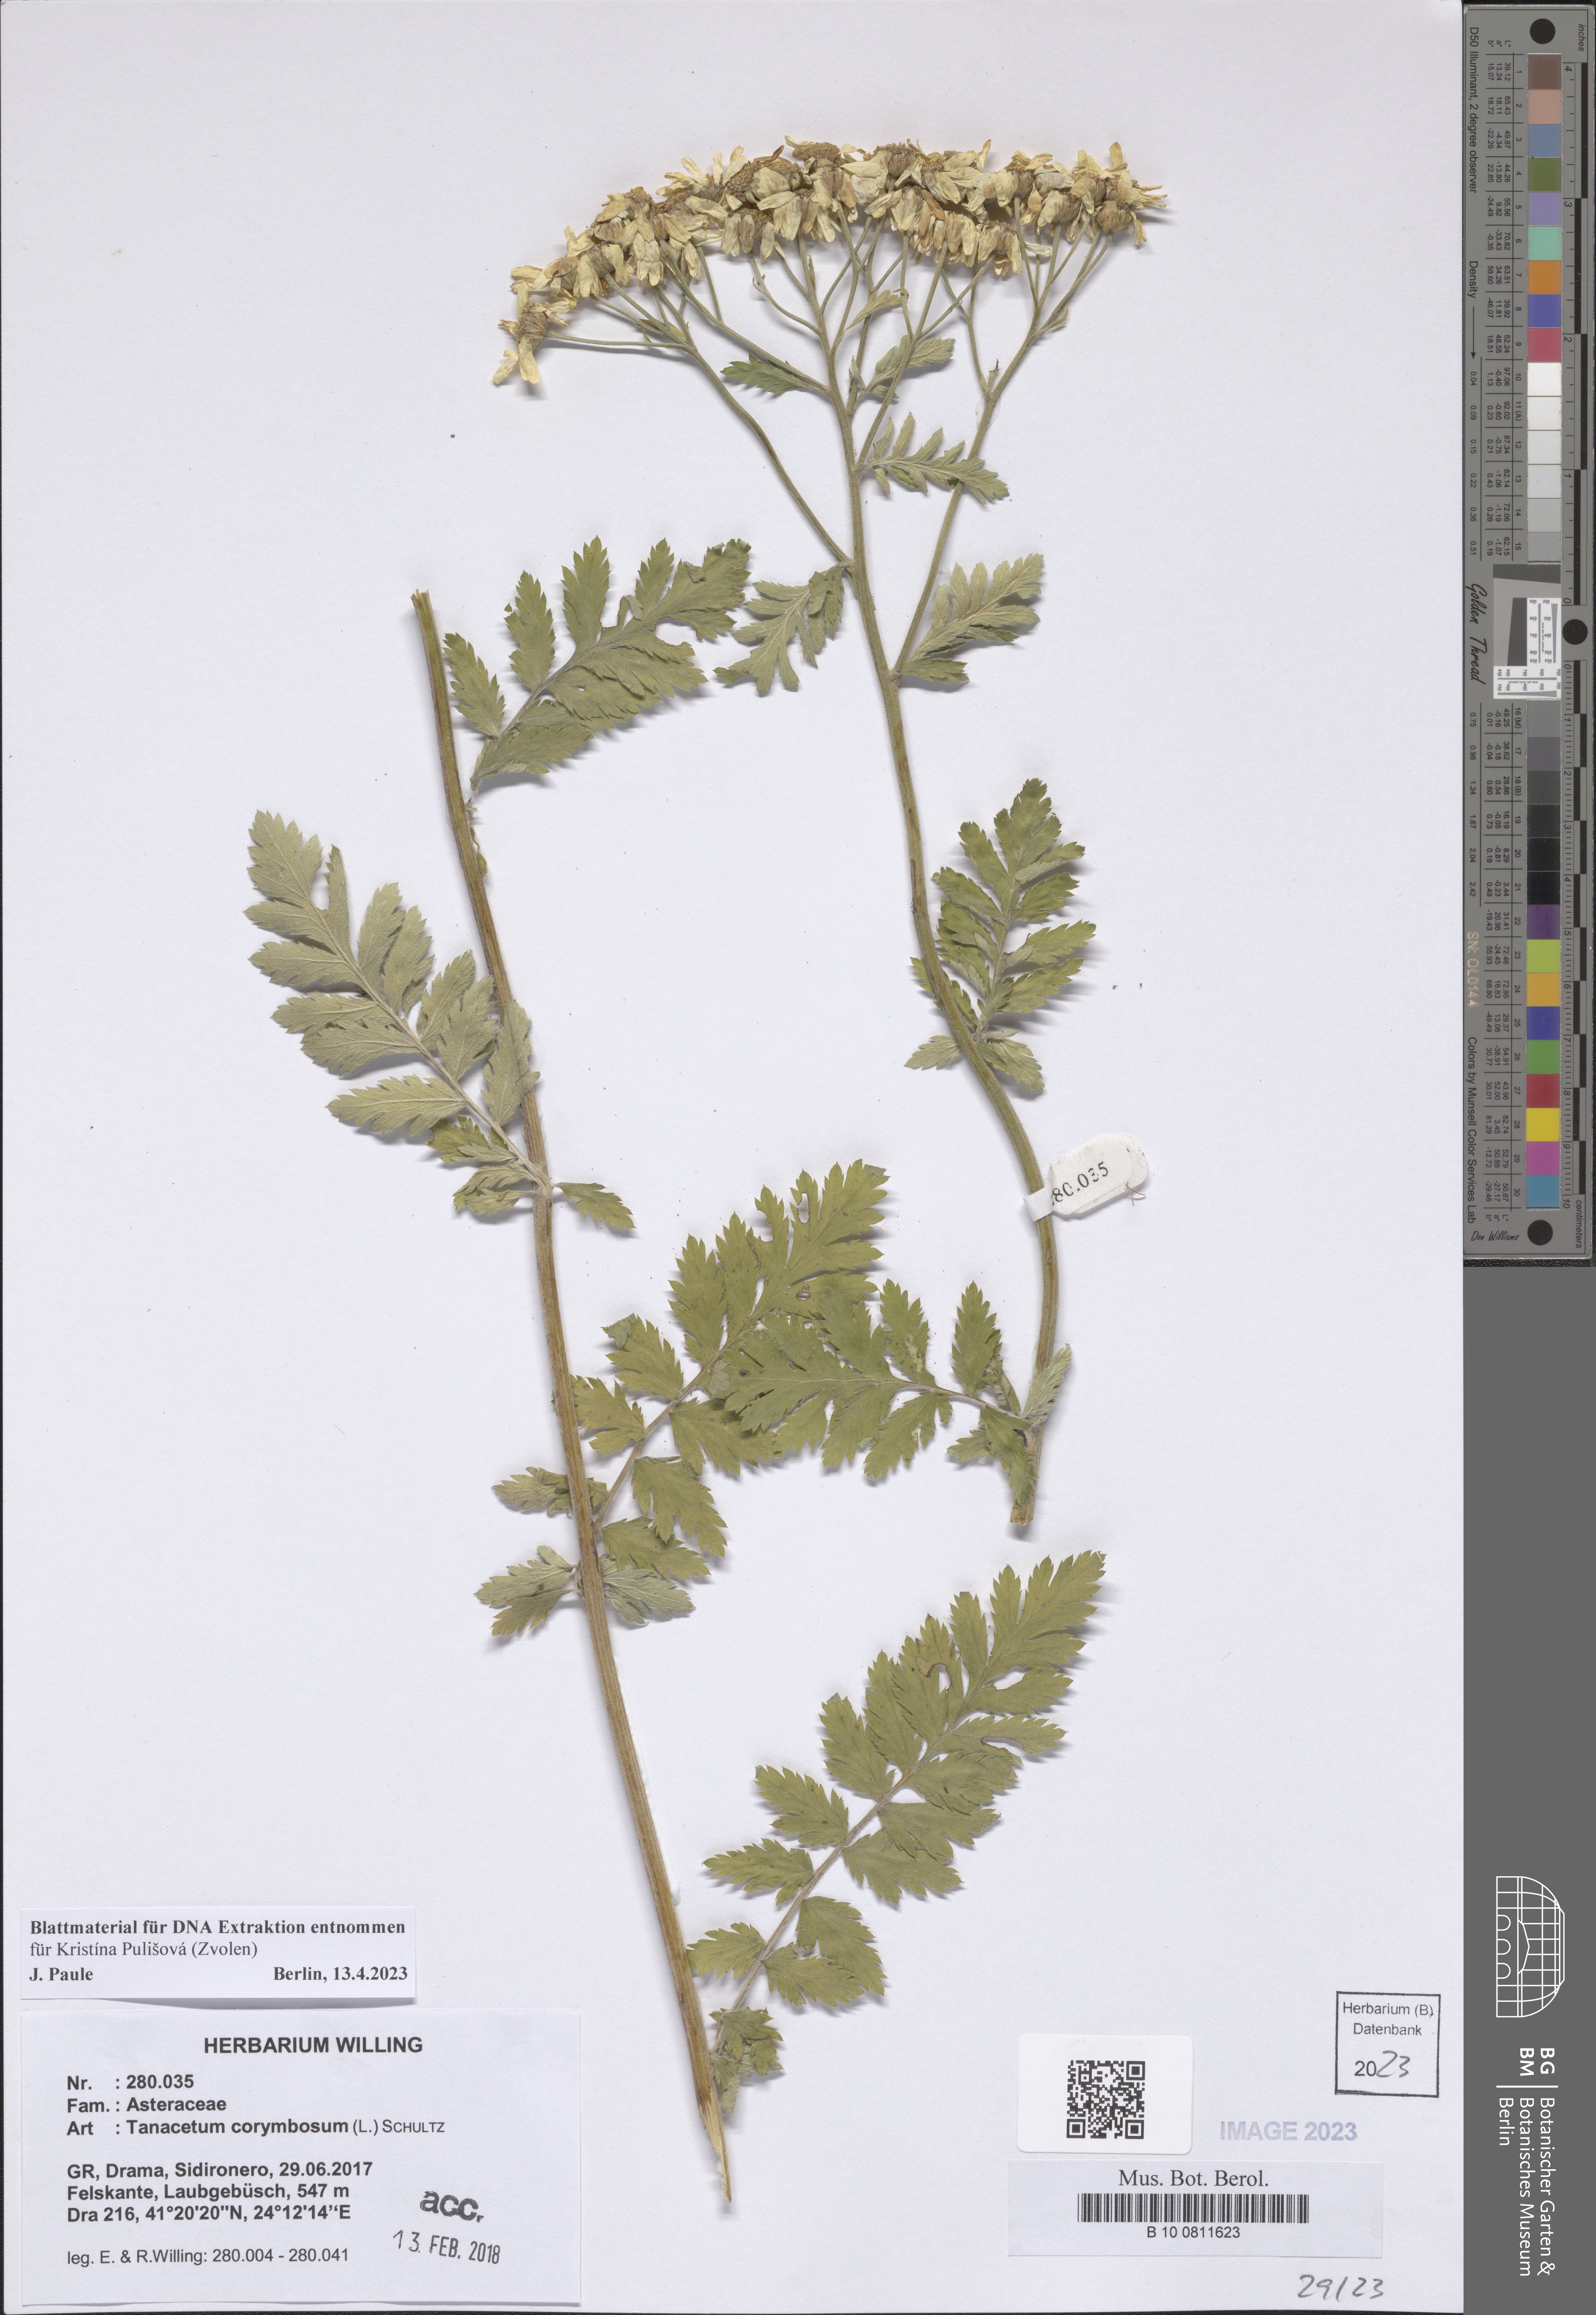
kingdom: Plantae
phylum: Tracheophyta
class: Magnoliopsida
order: Asterales
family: Asteraceae
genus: Tanacetum
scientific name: Tanacetum corymbosum
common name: Scentless feverfew
